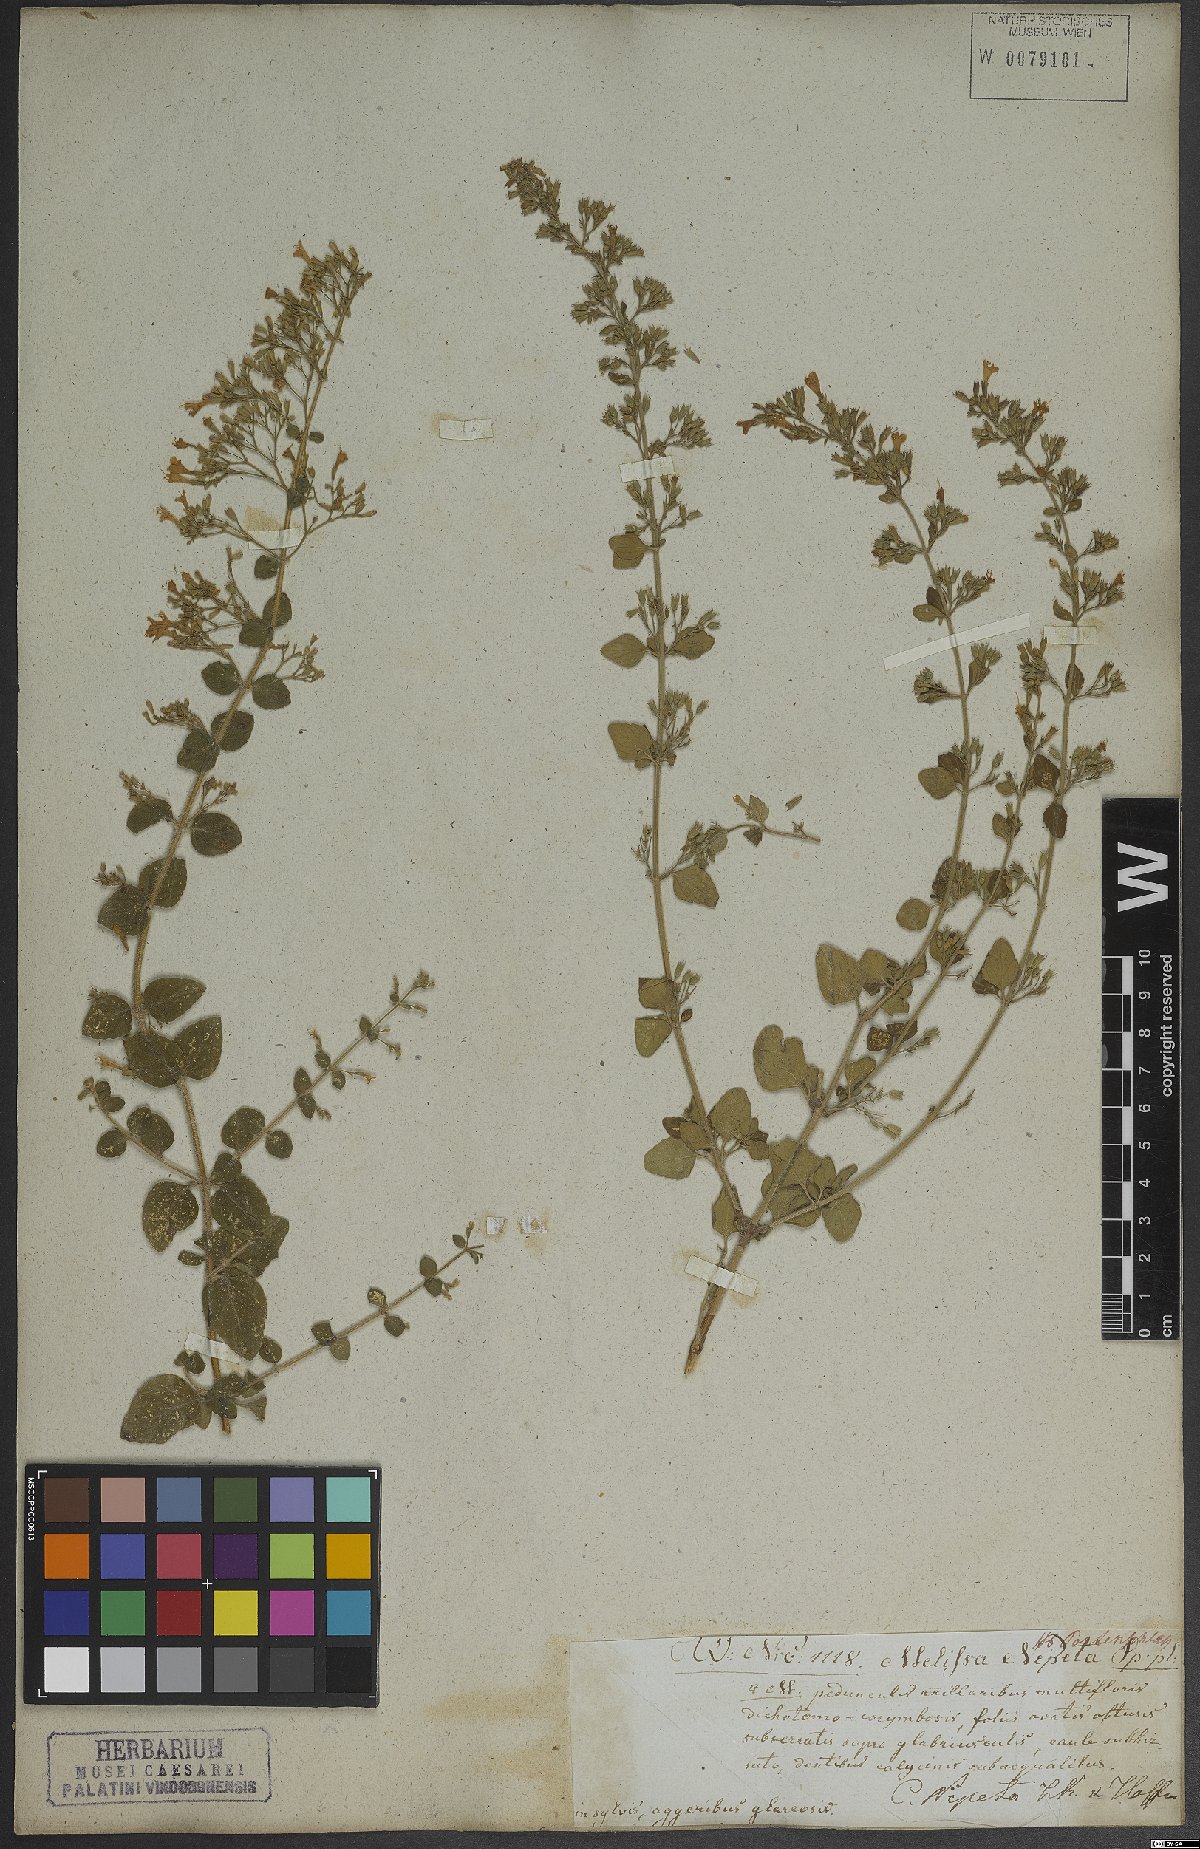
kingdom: Plantae
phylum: Tracheophyta
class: Magnoliopsida
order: Lamiales
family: Lamiaceae
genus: Clinopodium
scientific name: Clinopodium nepeta
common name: Lesser calamint
